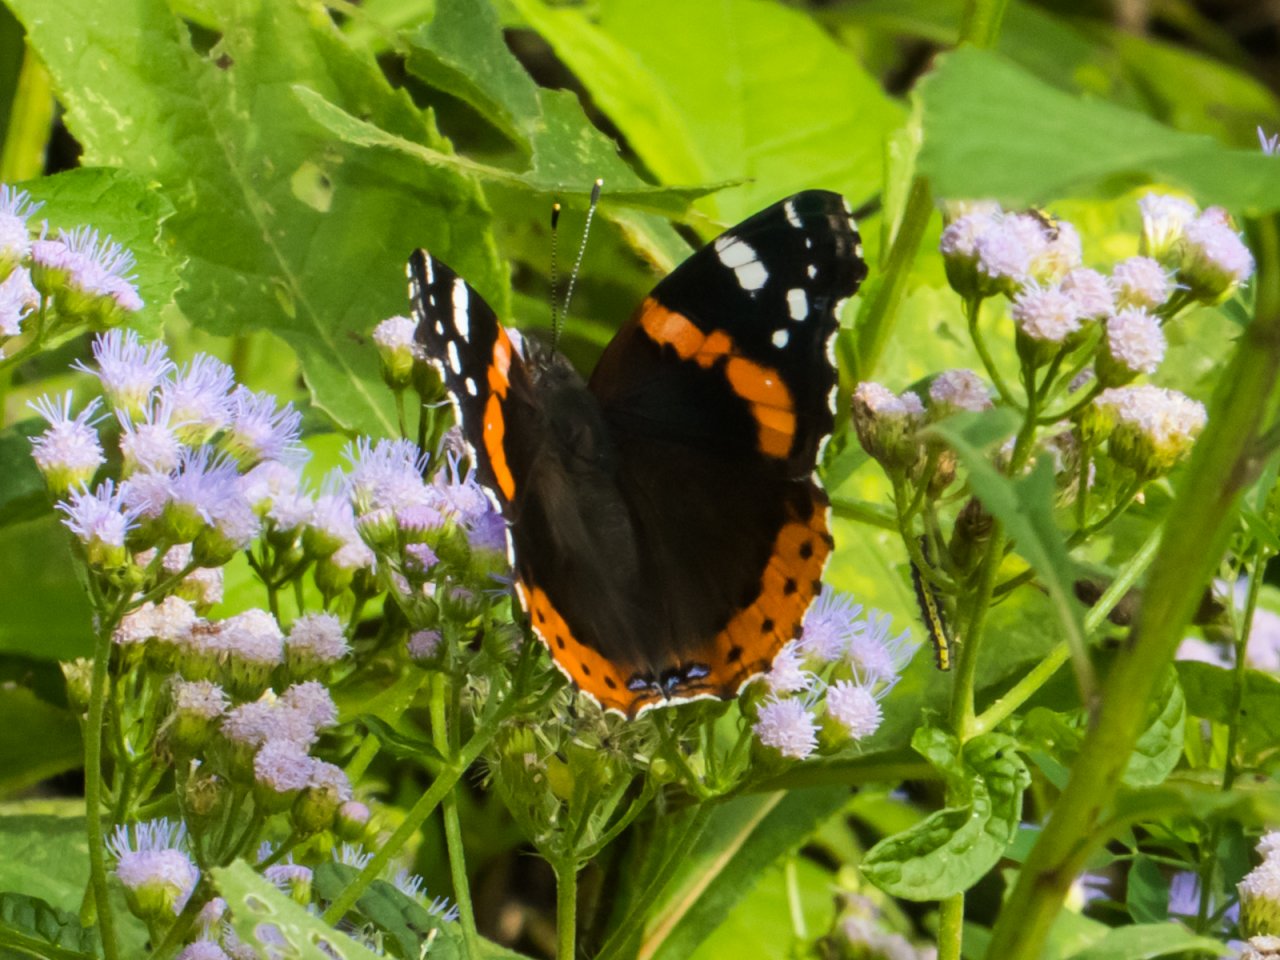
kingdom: Animalia
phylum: Arthropoda
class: Insecta
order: Lepidoptera
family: Nymphalidae
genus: Vanessa
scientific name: Vanessa atalanta
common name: Red Admiral
